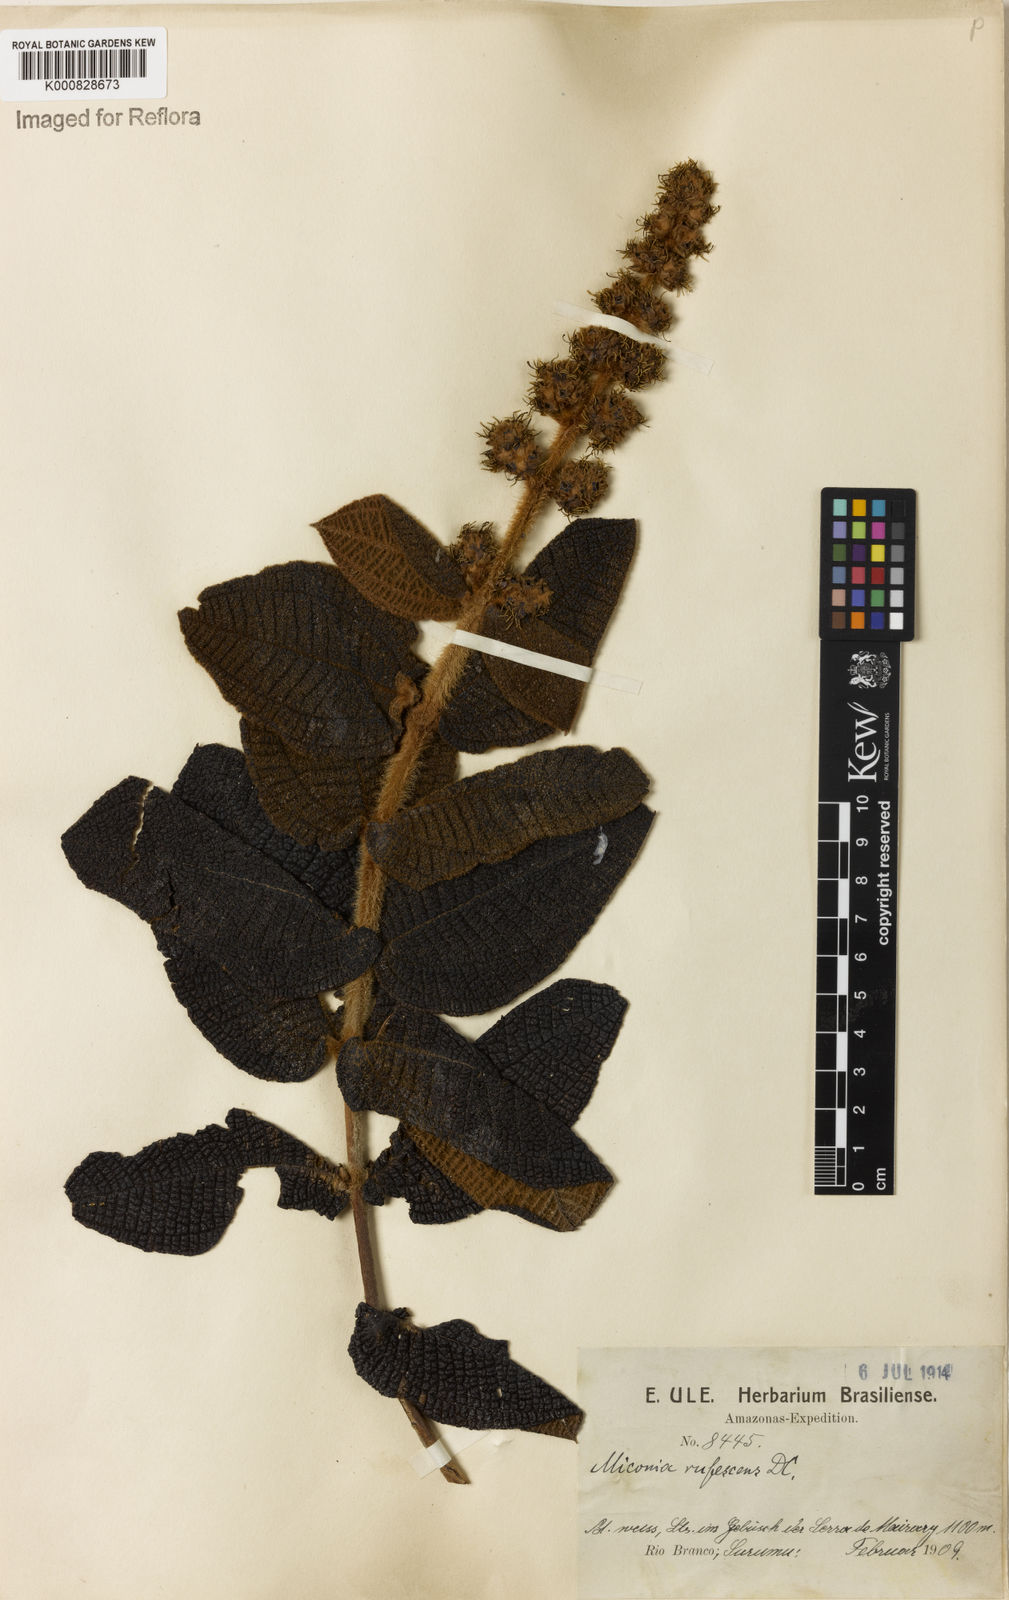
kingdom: Plantae
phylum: Tracheophyta
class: Magnoliopsida
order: Myrtales
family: Melastomataceae
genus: Miconia
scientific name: Miconia rufescens
